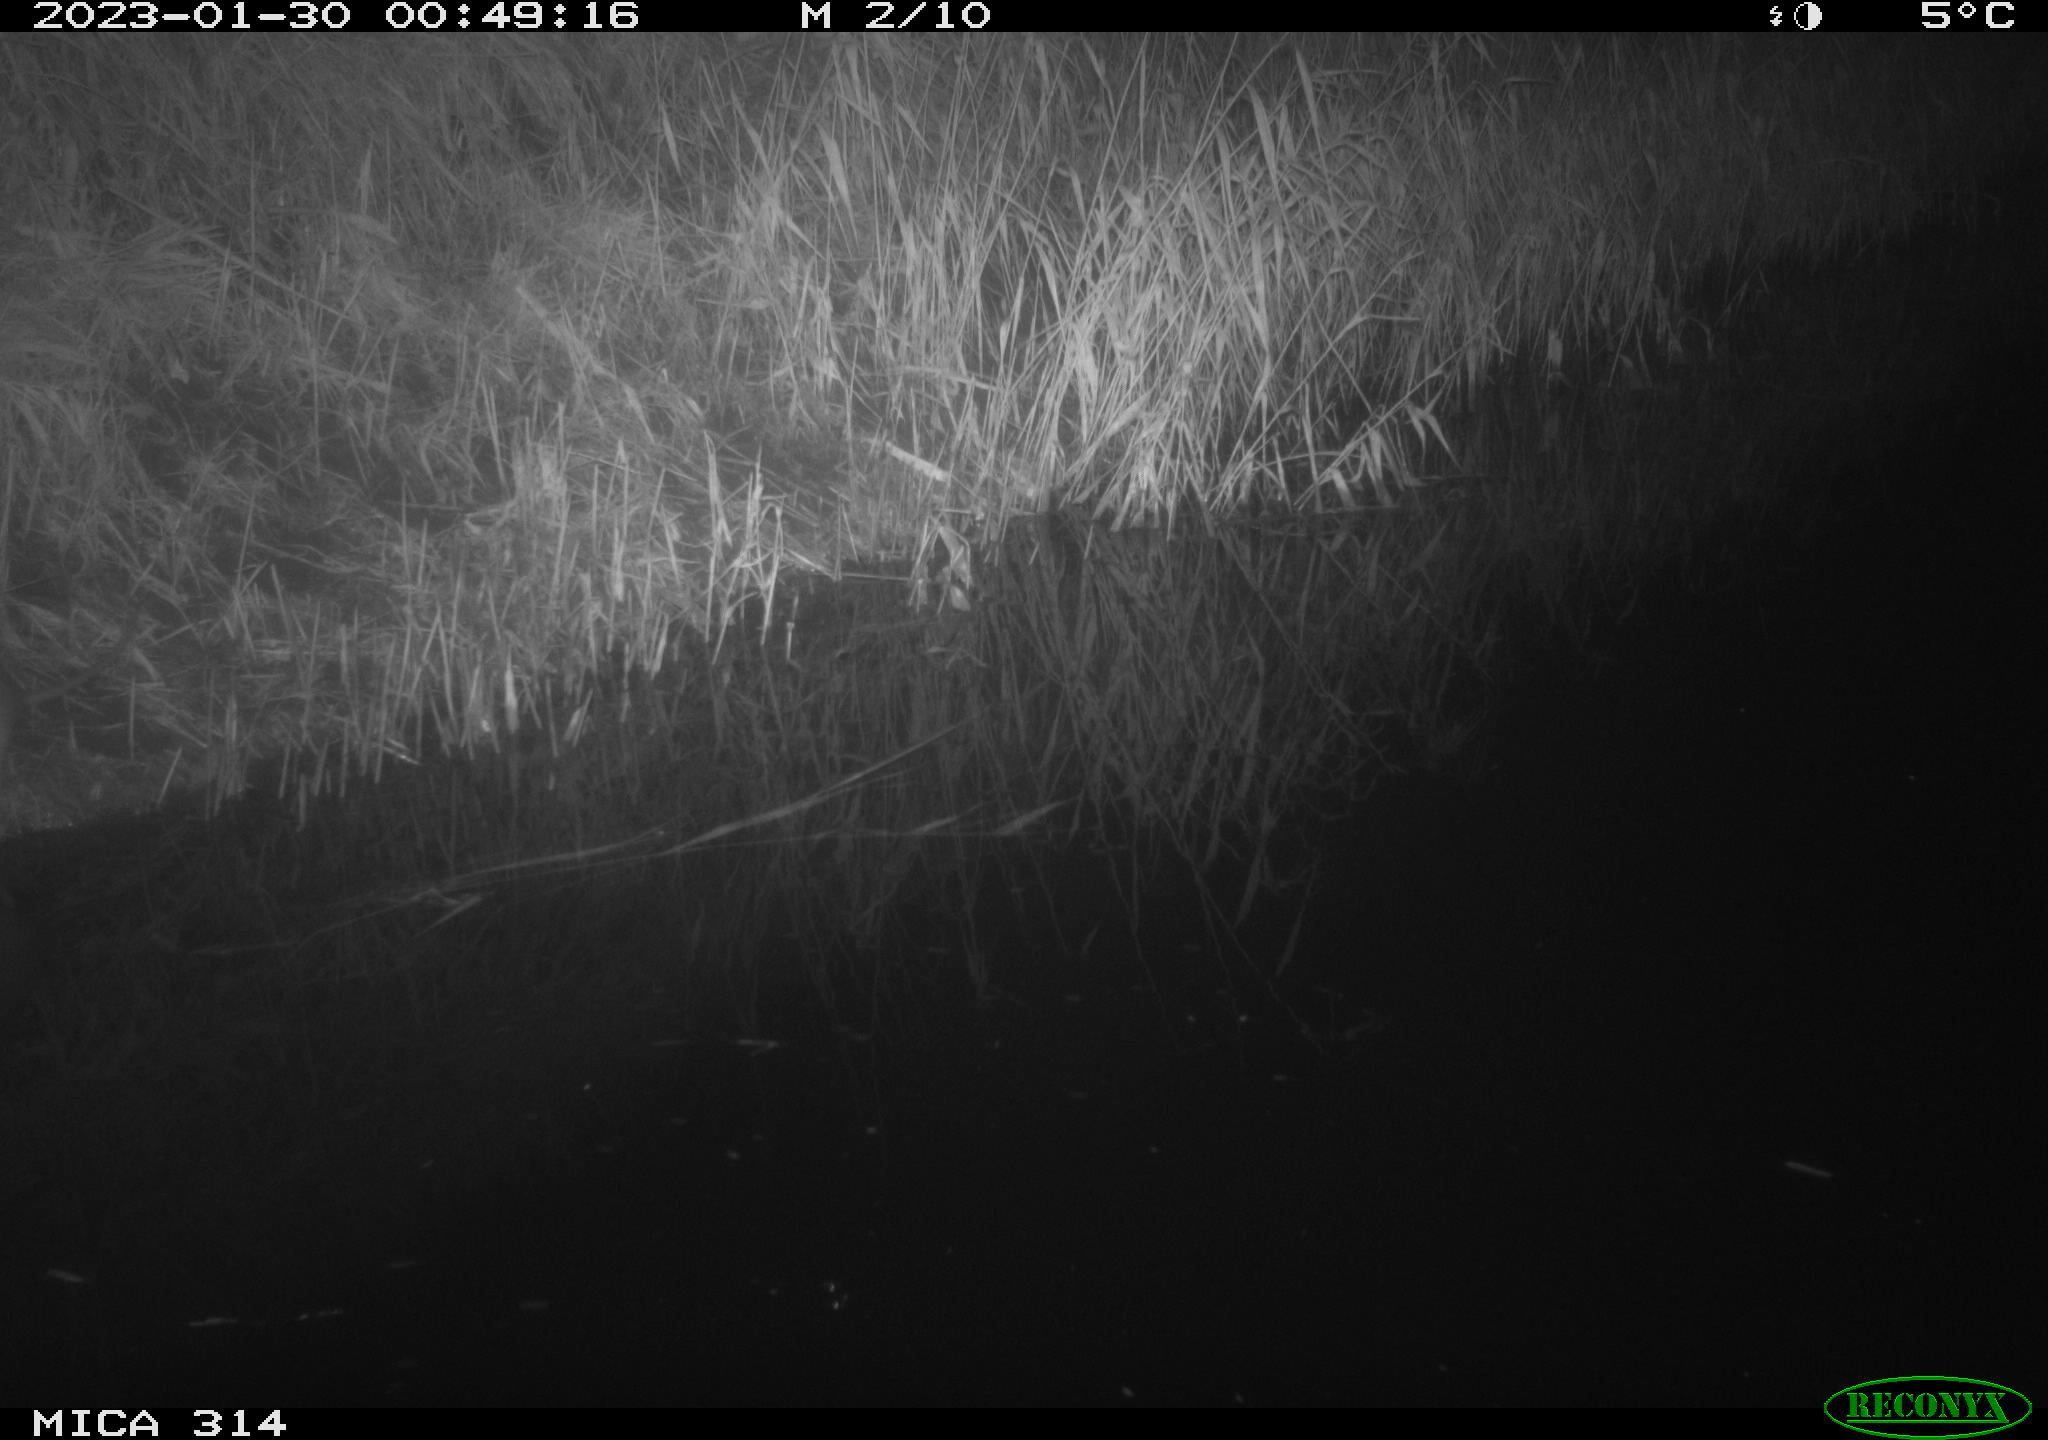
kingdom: Animalia
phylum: Chordata
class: Mammalia
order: Rodentia
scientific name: Rodentia
